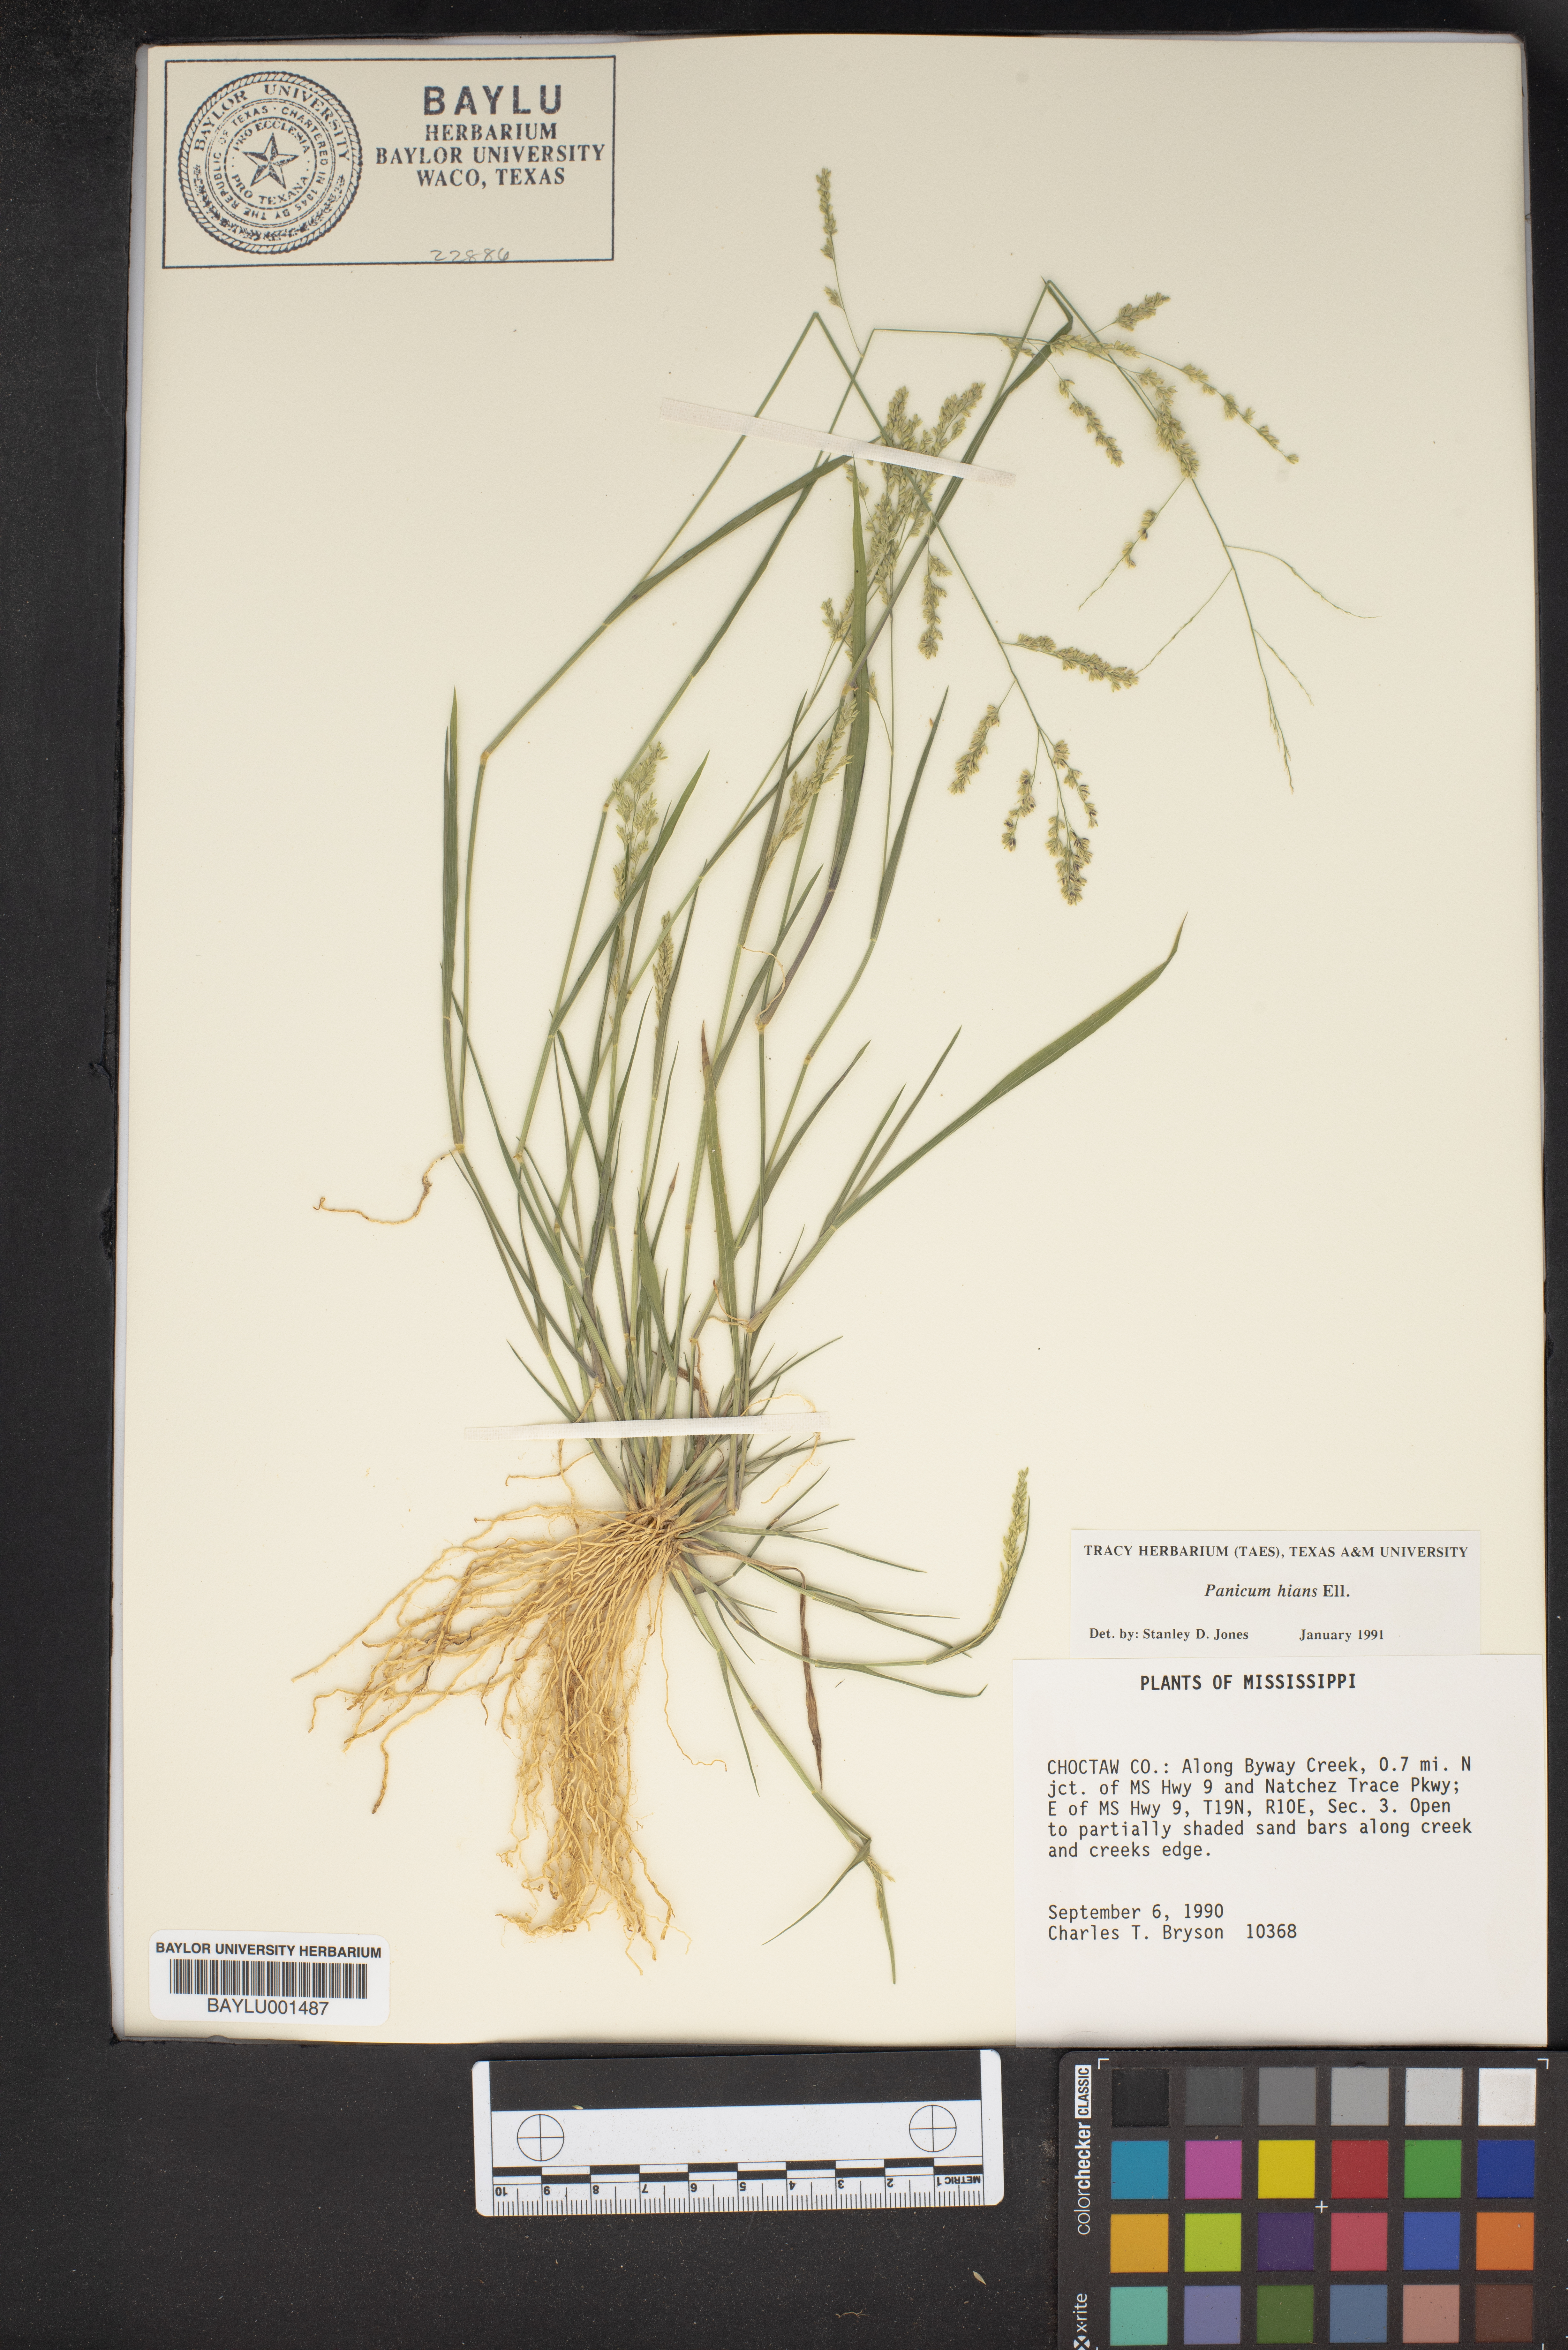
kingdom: Plantae
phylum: Tracheophyta
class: Liliopsida
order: Poales
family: Poaceae
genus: Coleataenia
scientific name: Coleataenia stenodes
